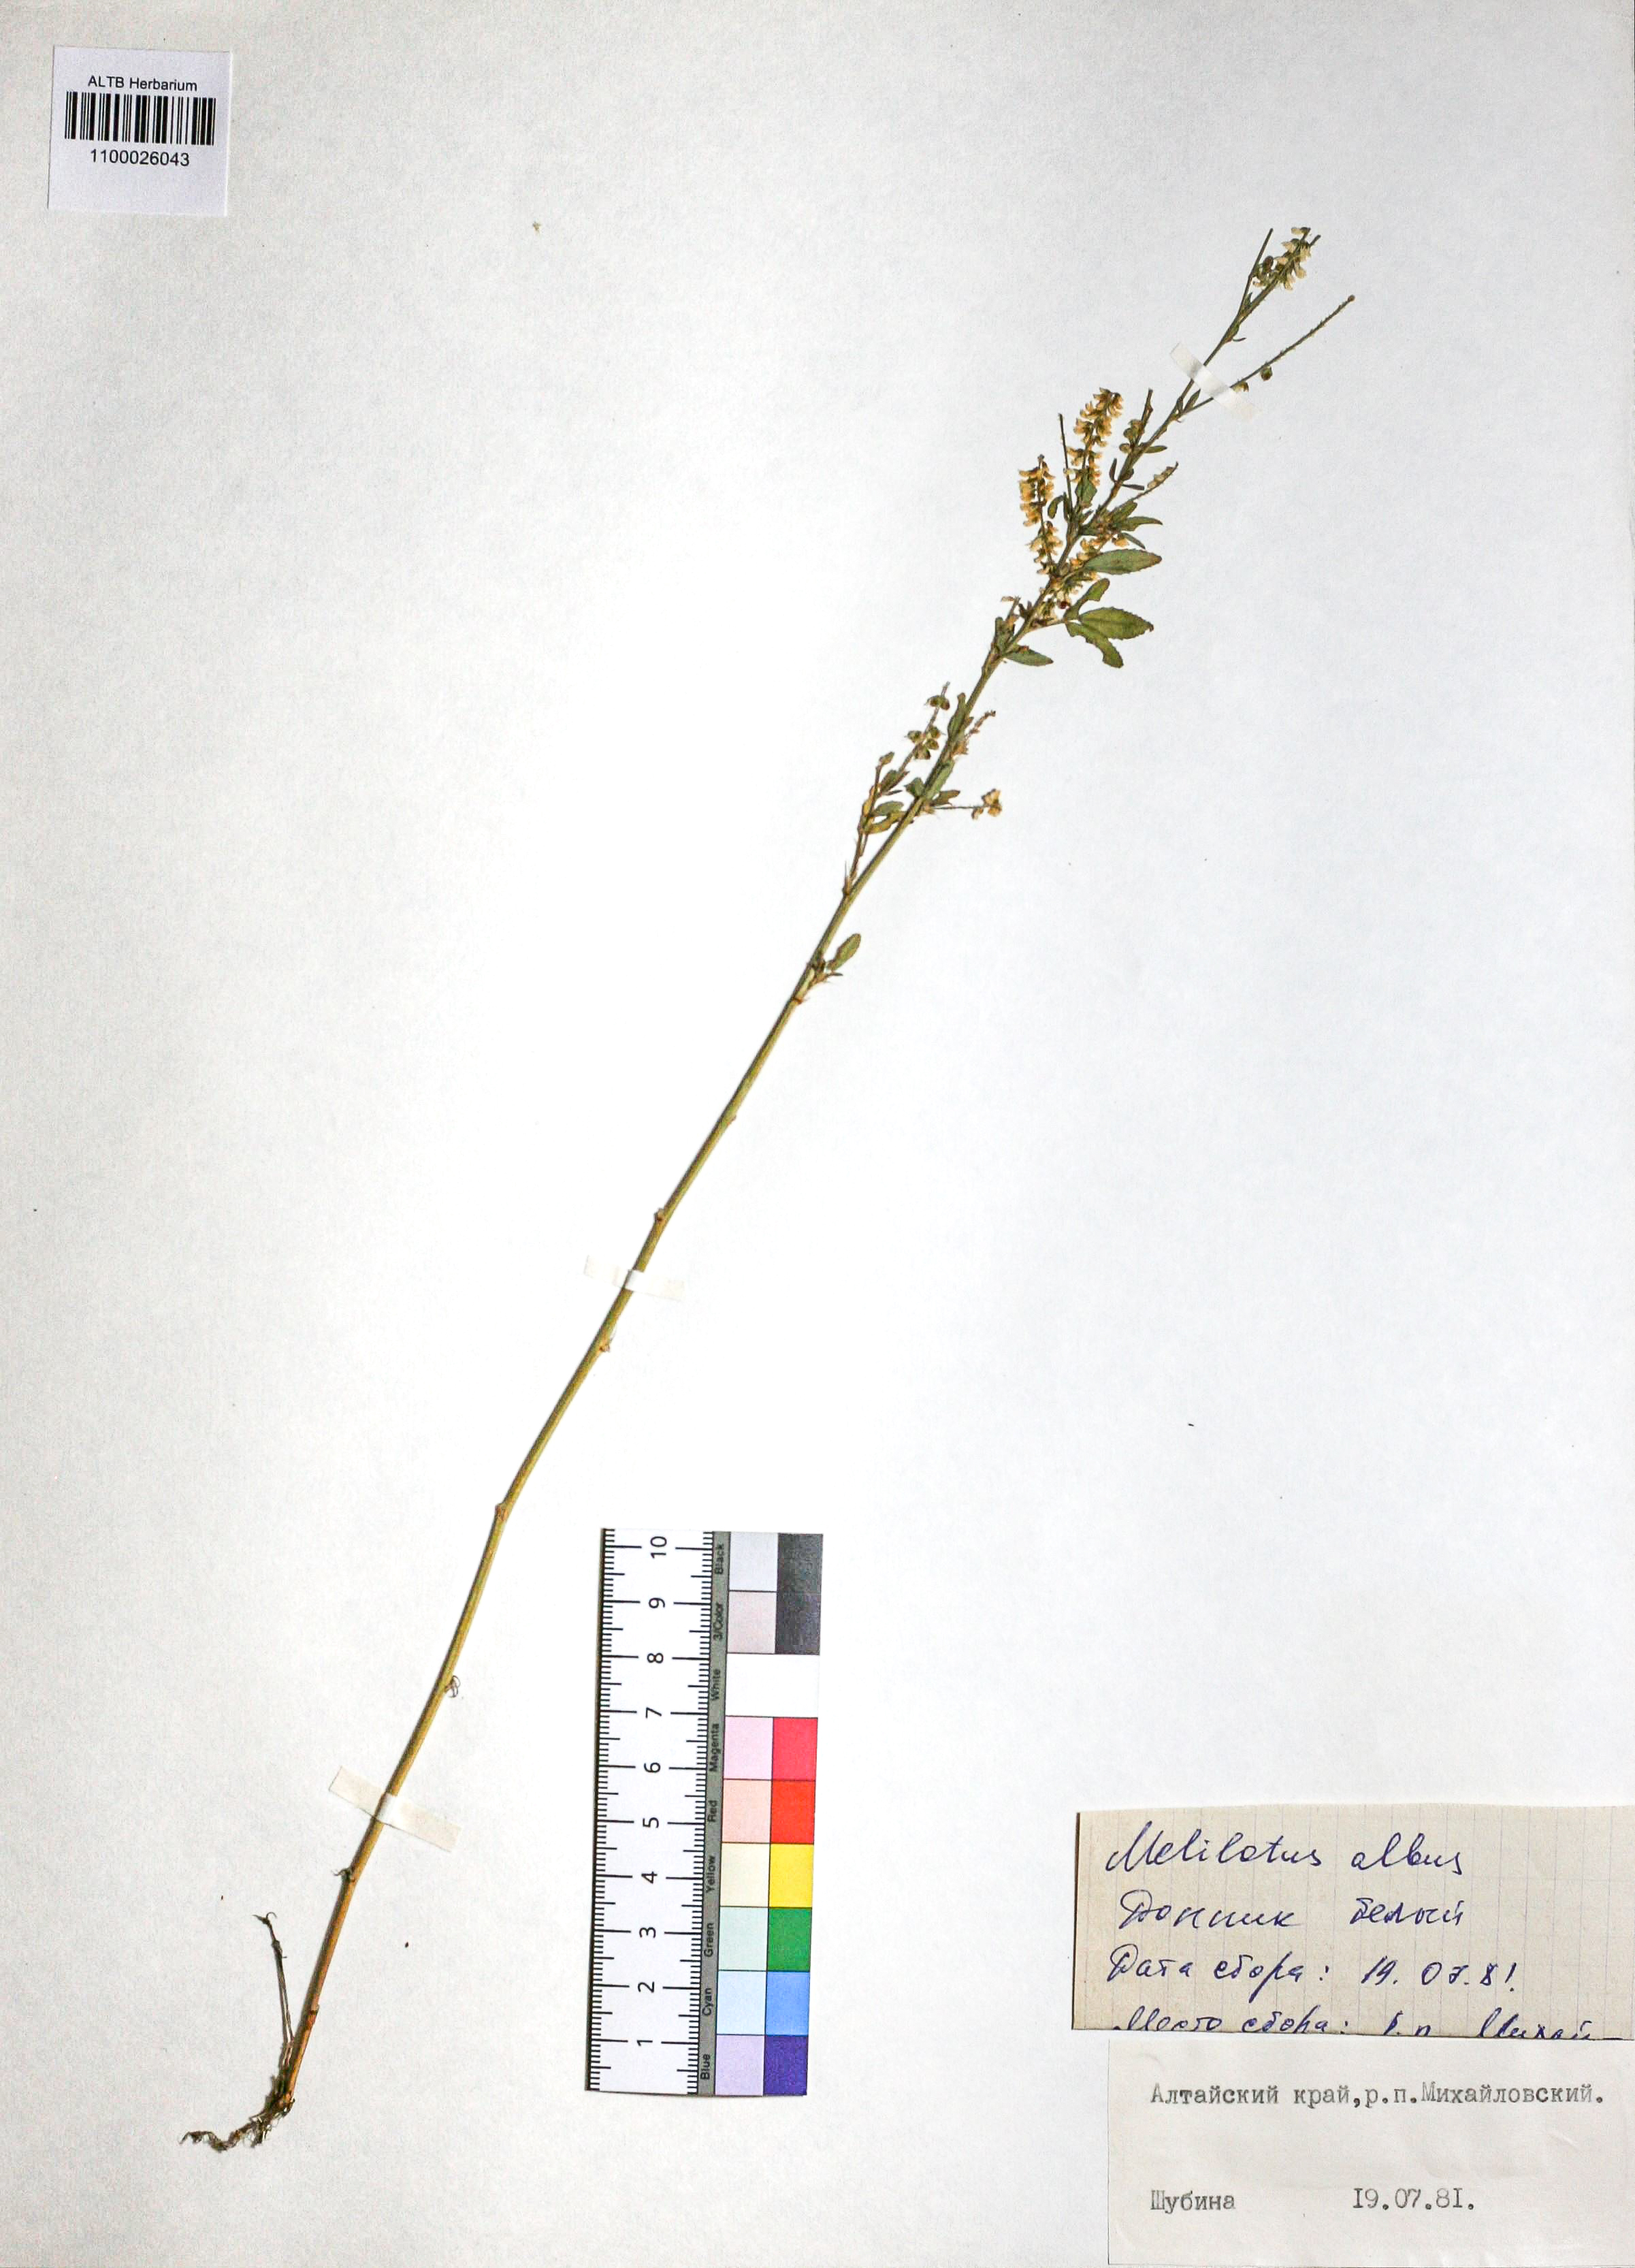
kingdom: Plantae
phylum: Tracheophyta
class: Magnoliopsida
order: Fabales
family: Fabaceae
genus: Melilotus
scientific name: Melilotus albus
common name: White melilot
